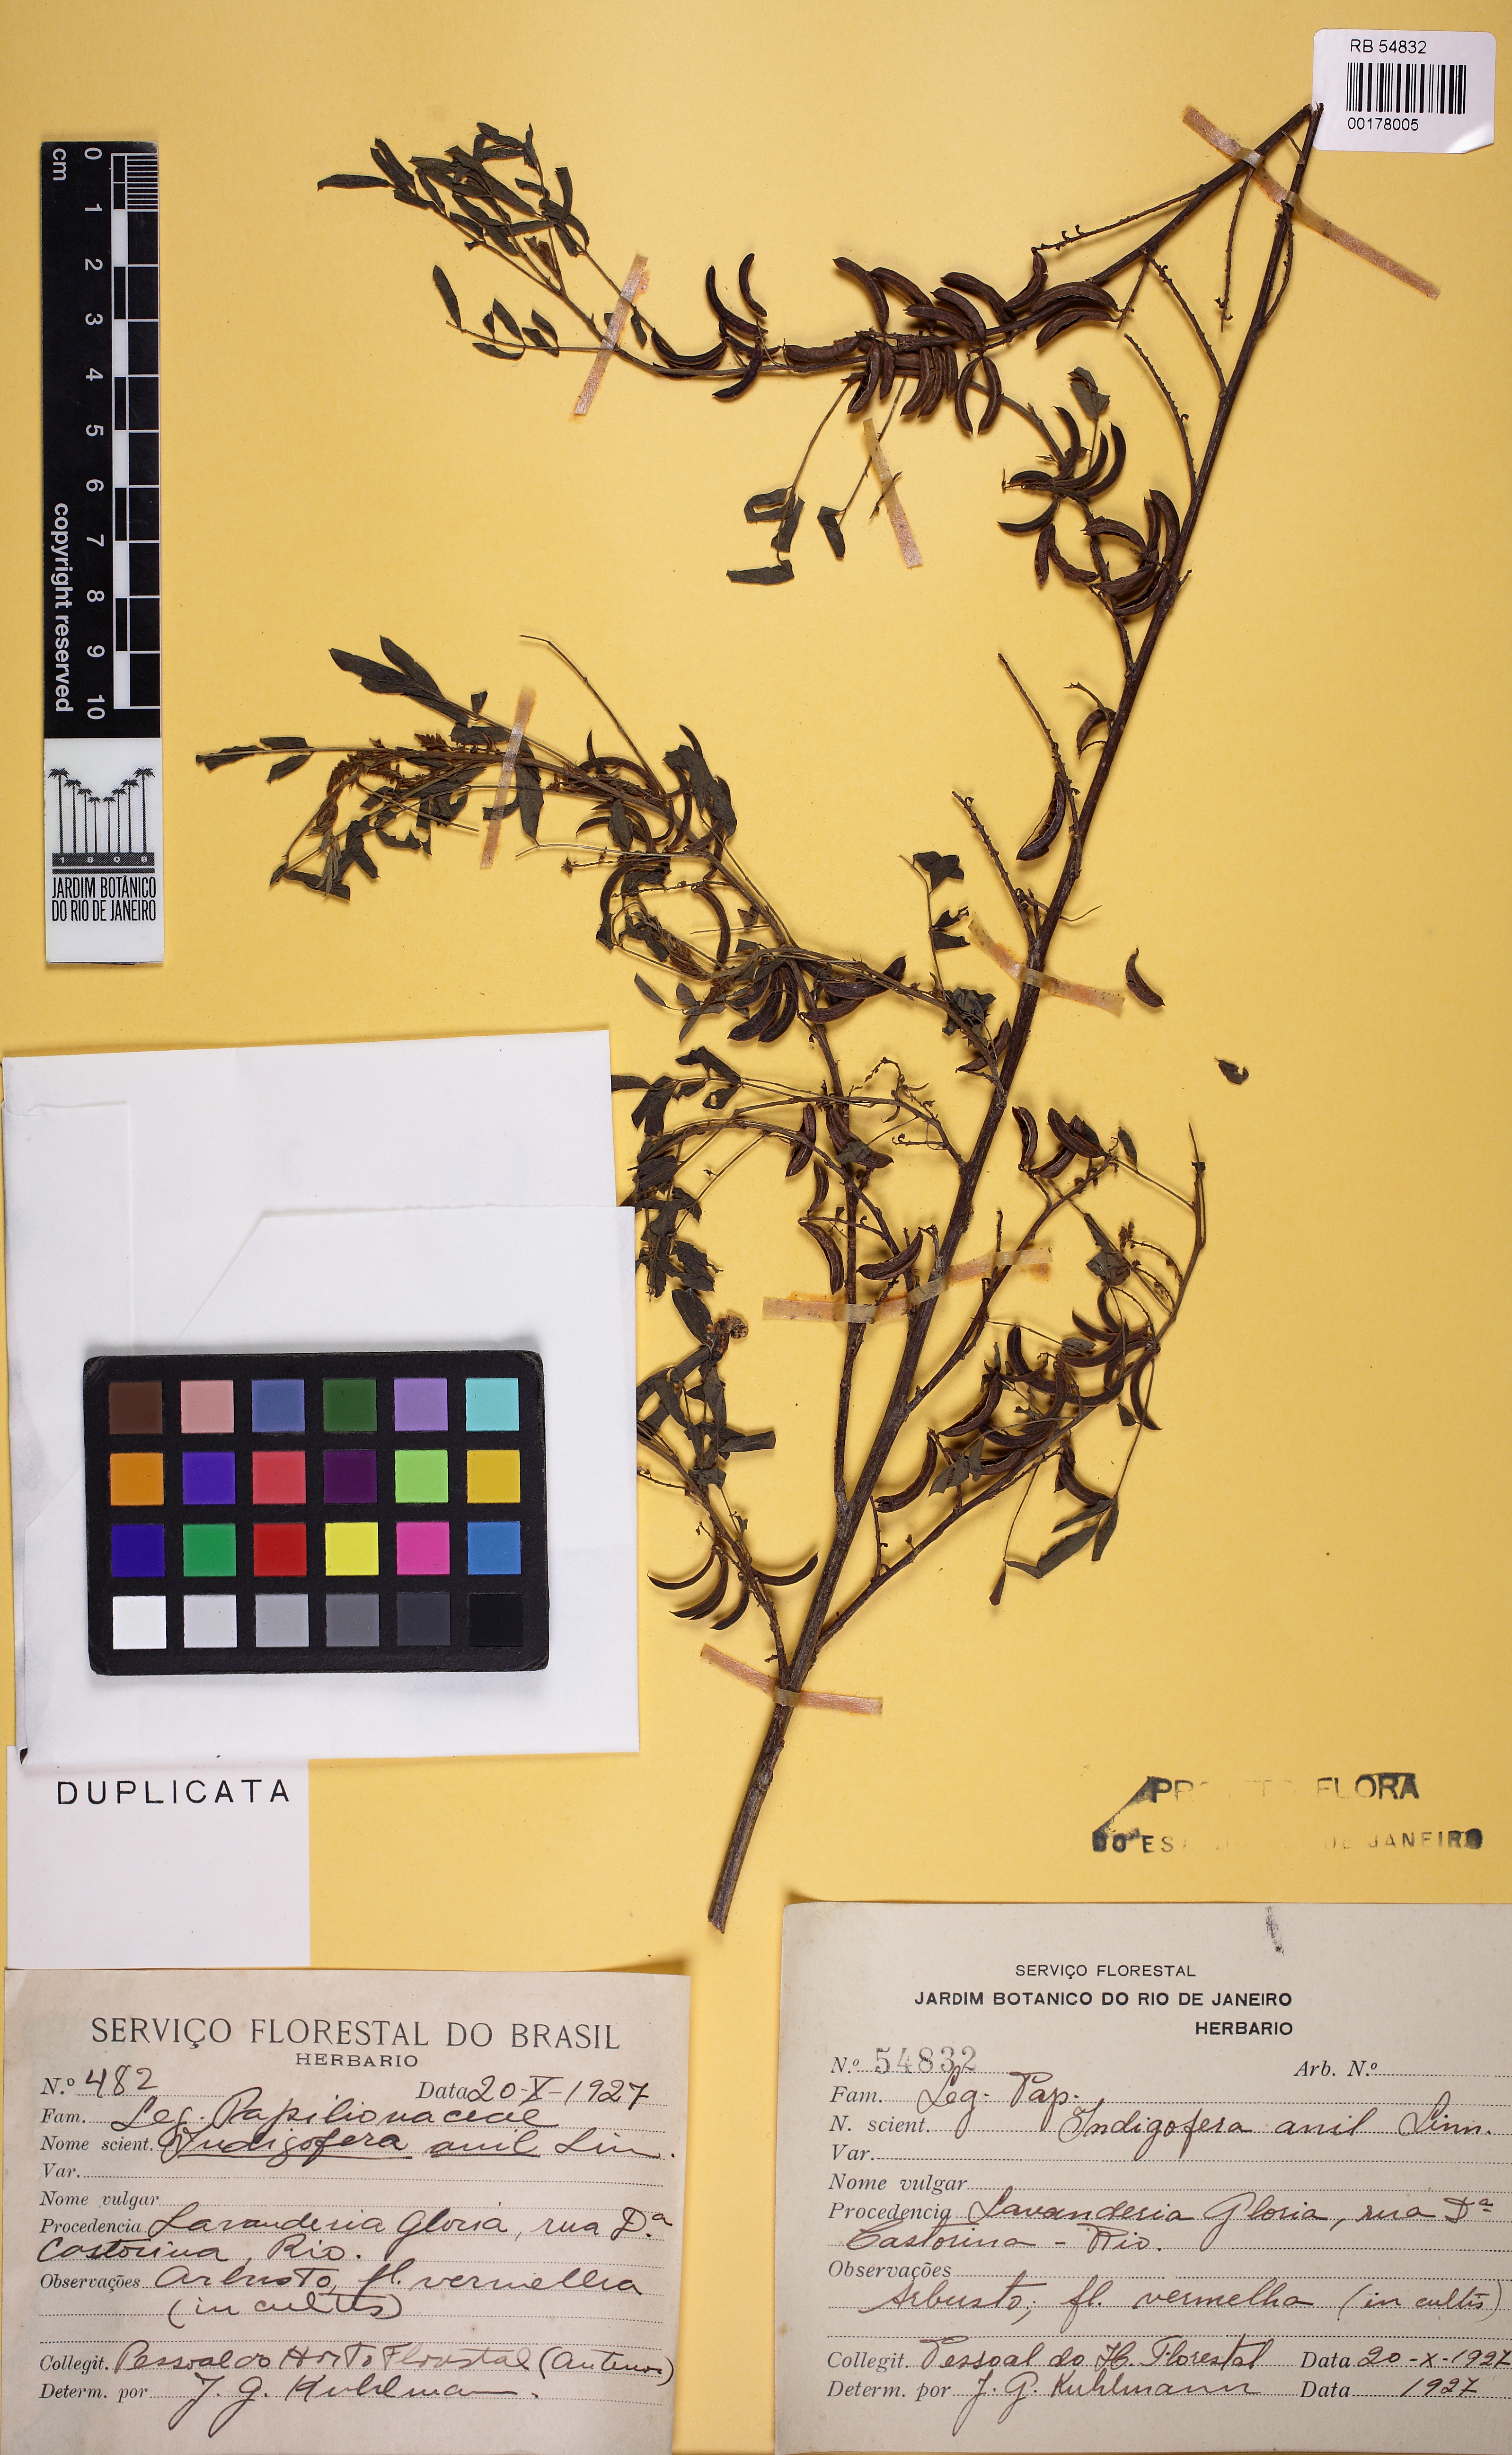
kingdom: Plantae
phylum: Tracheophyta
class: Magnoliopsida
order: Fabales
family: Fabaceae
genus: Indigofera
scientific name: Indigofera suffruticosa
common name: Anil de pasto
